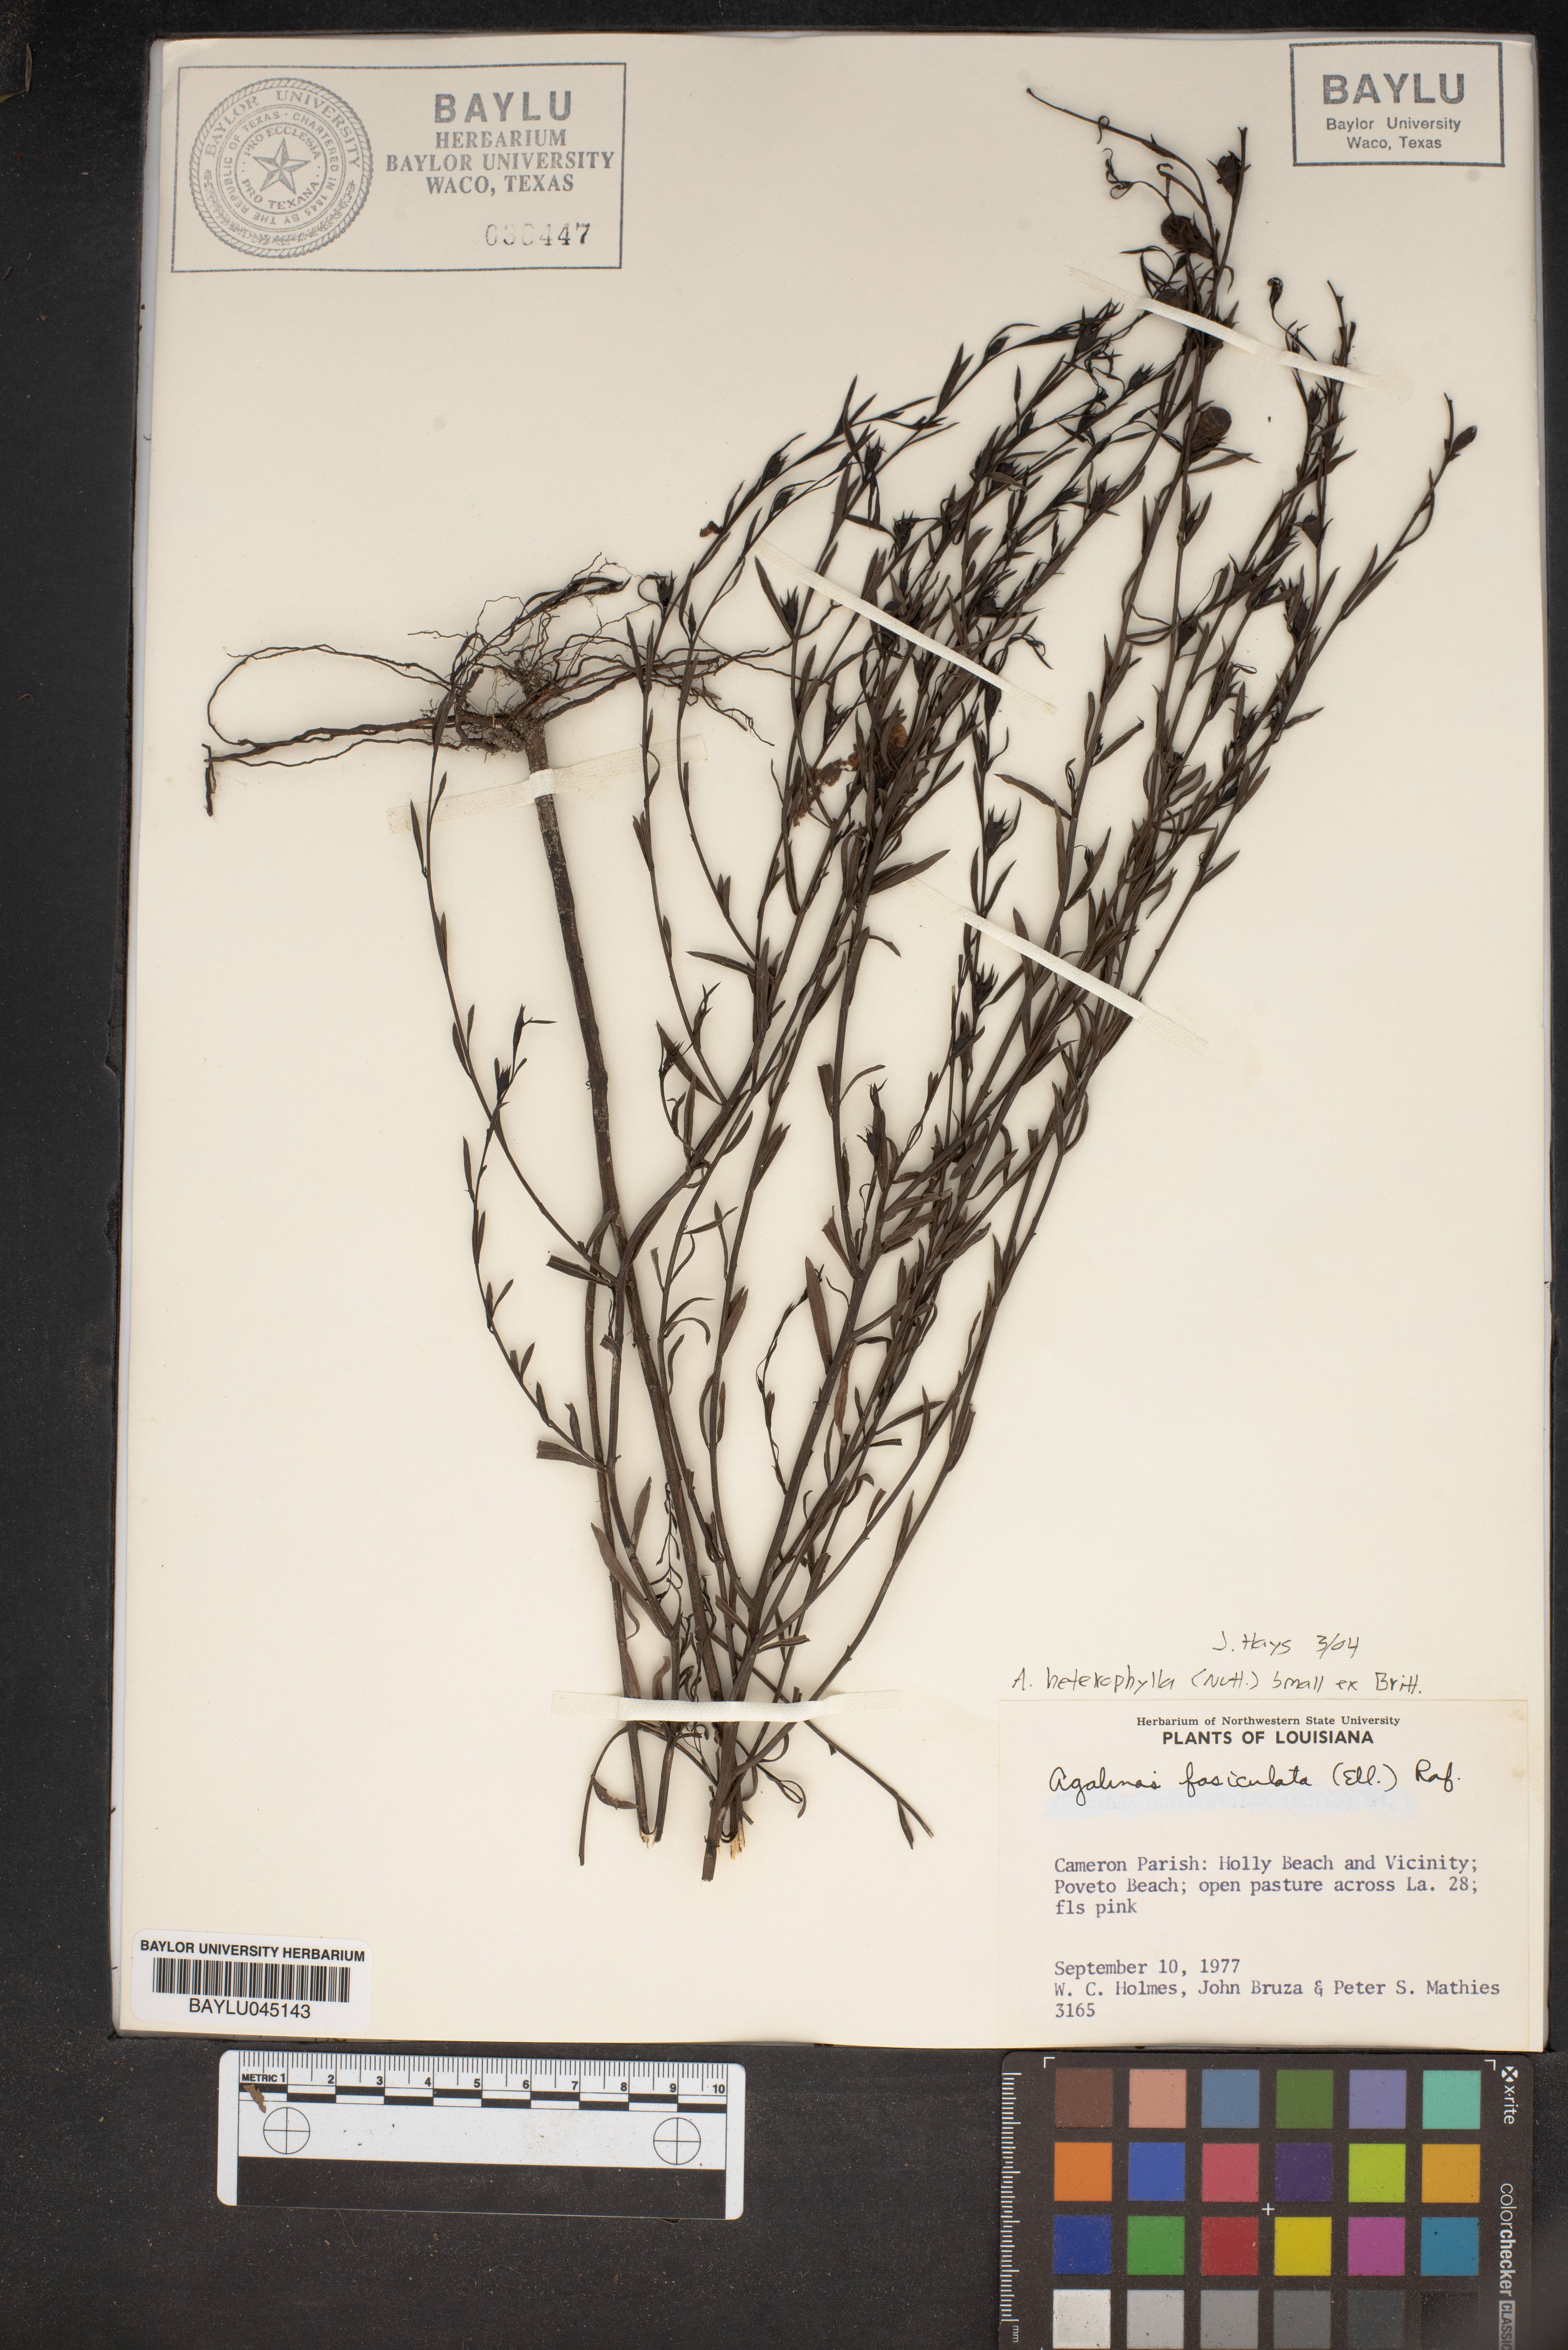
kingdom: Plantae
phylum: Tracheophyta
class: Magnoliopsida
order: Lamiales
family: Orobanchaceae
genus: Agalinis
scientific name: Agalinis heterophylla
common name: Prairie agalinis
